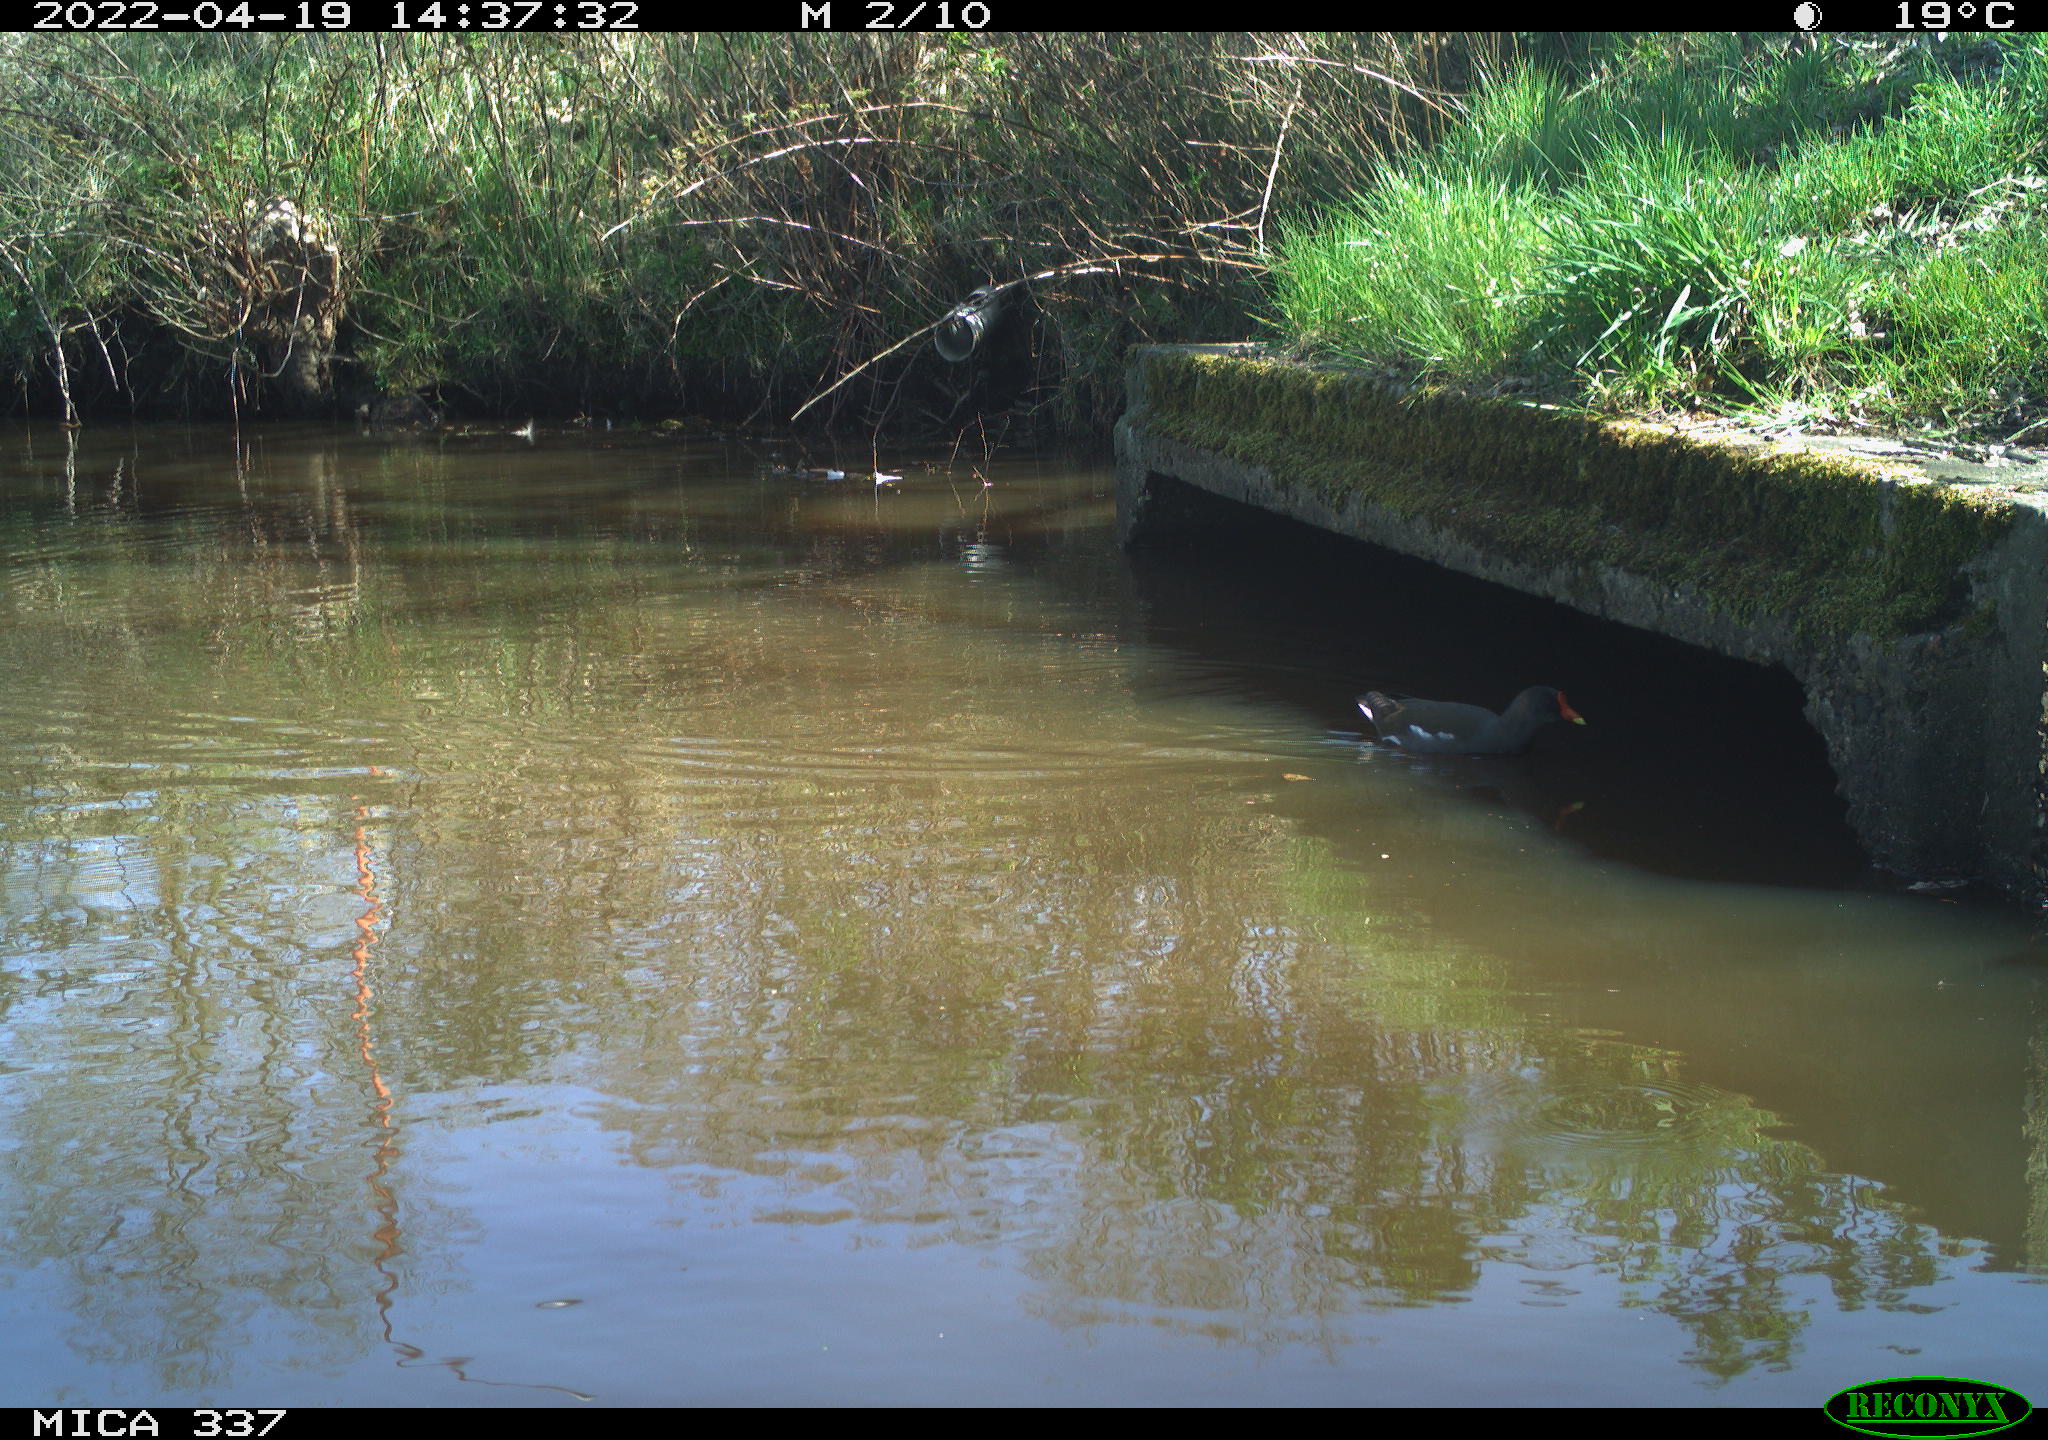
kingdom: Animalia
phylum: Chordata
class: Aves
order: Gruiformes
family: Rallidae
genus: Gallinula
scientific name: Gallinula chloropus
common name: Common moorhen
